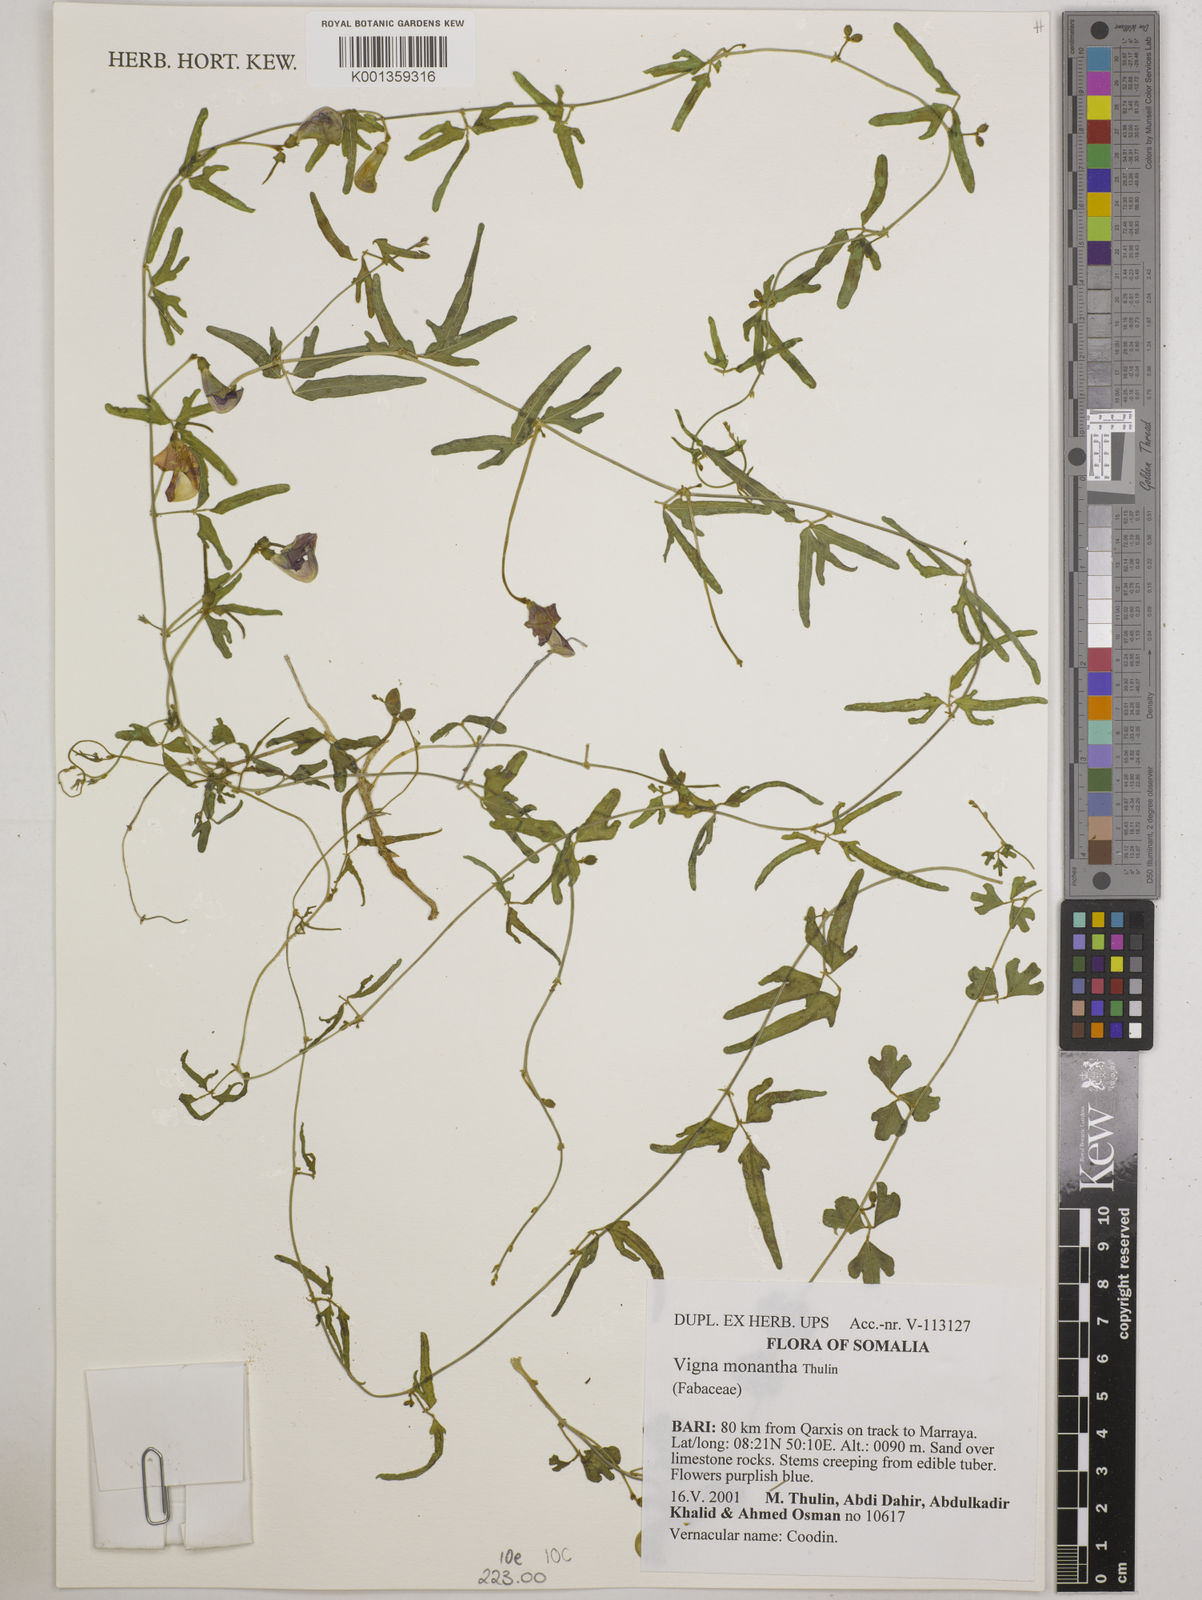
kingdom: Plantae
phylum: Tracheophyta
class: Magnoliopsida
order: Fabales
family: Fabaceae
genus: Vigna
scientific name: Vigna monantha
